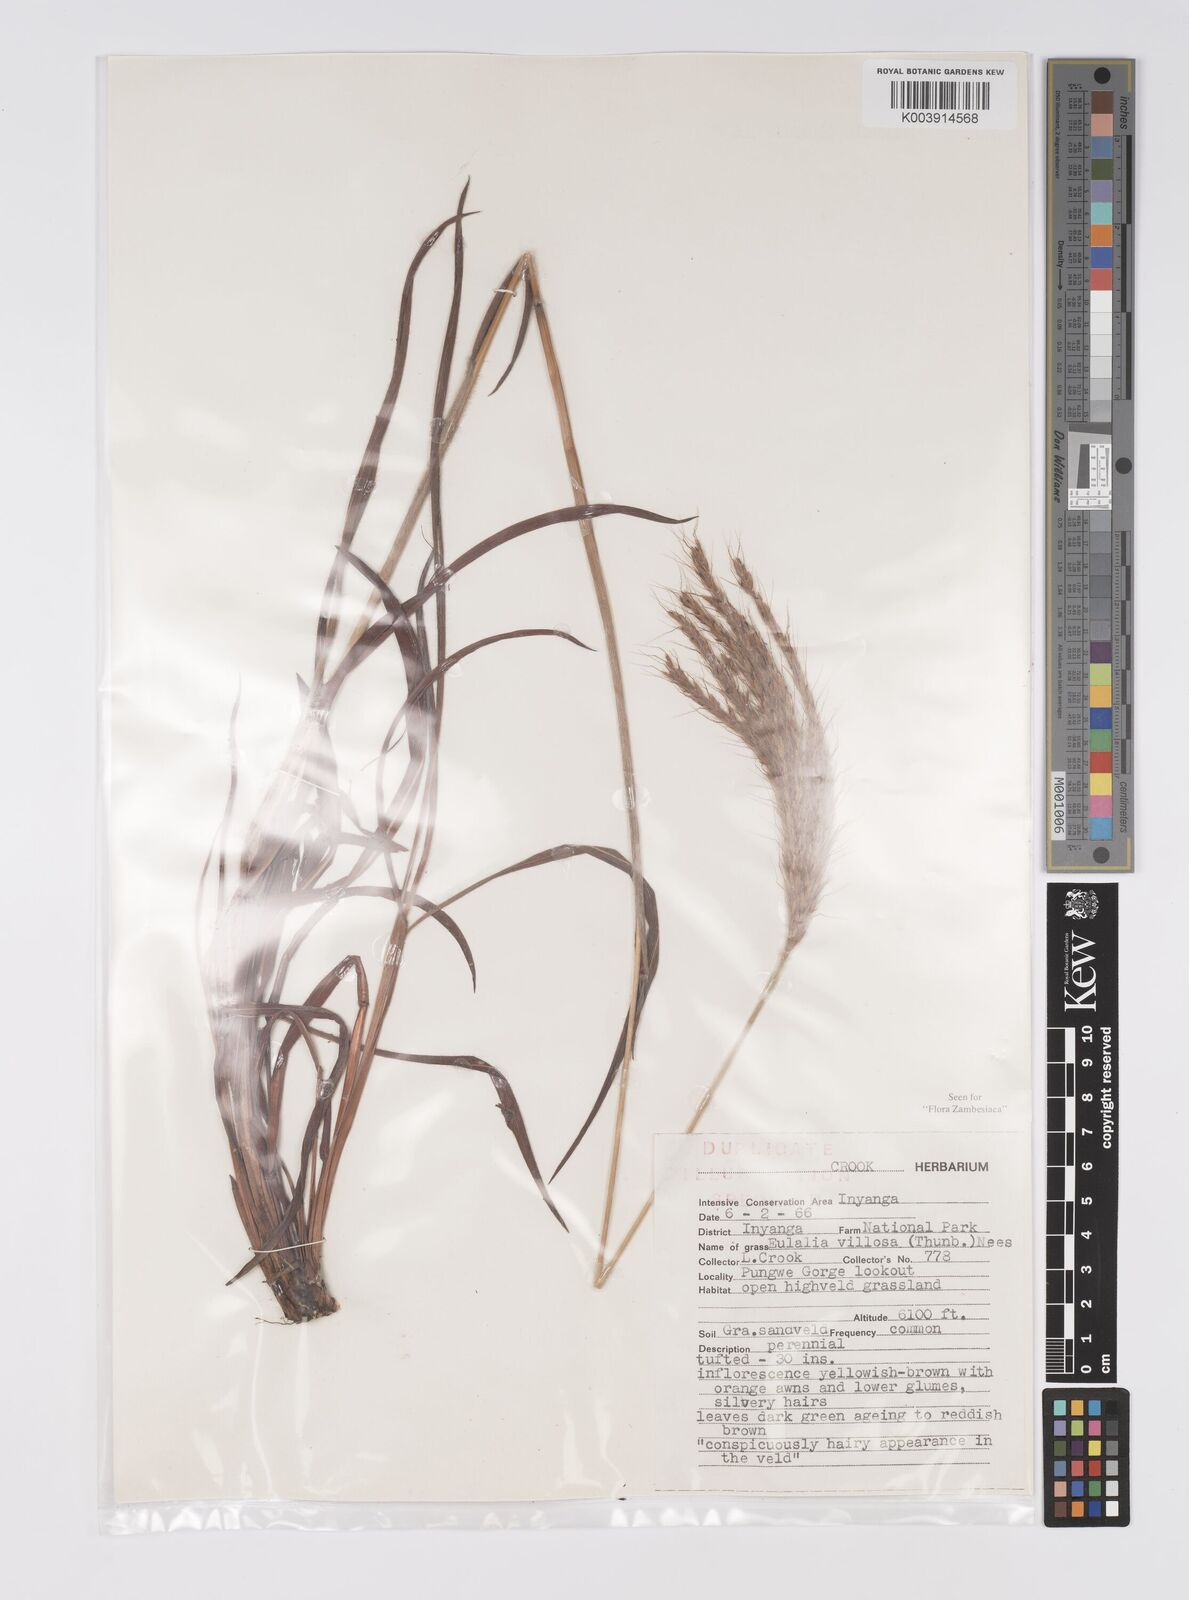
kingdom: Plantae
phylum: Tracheophyta
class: Liliopsida
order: Poales
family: Poaceae
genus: Eulalia
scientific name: Eulalia villosa
